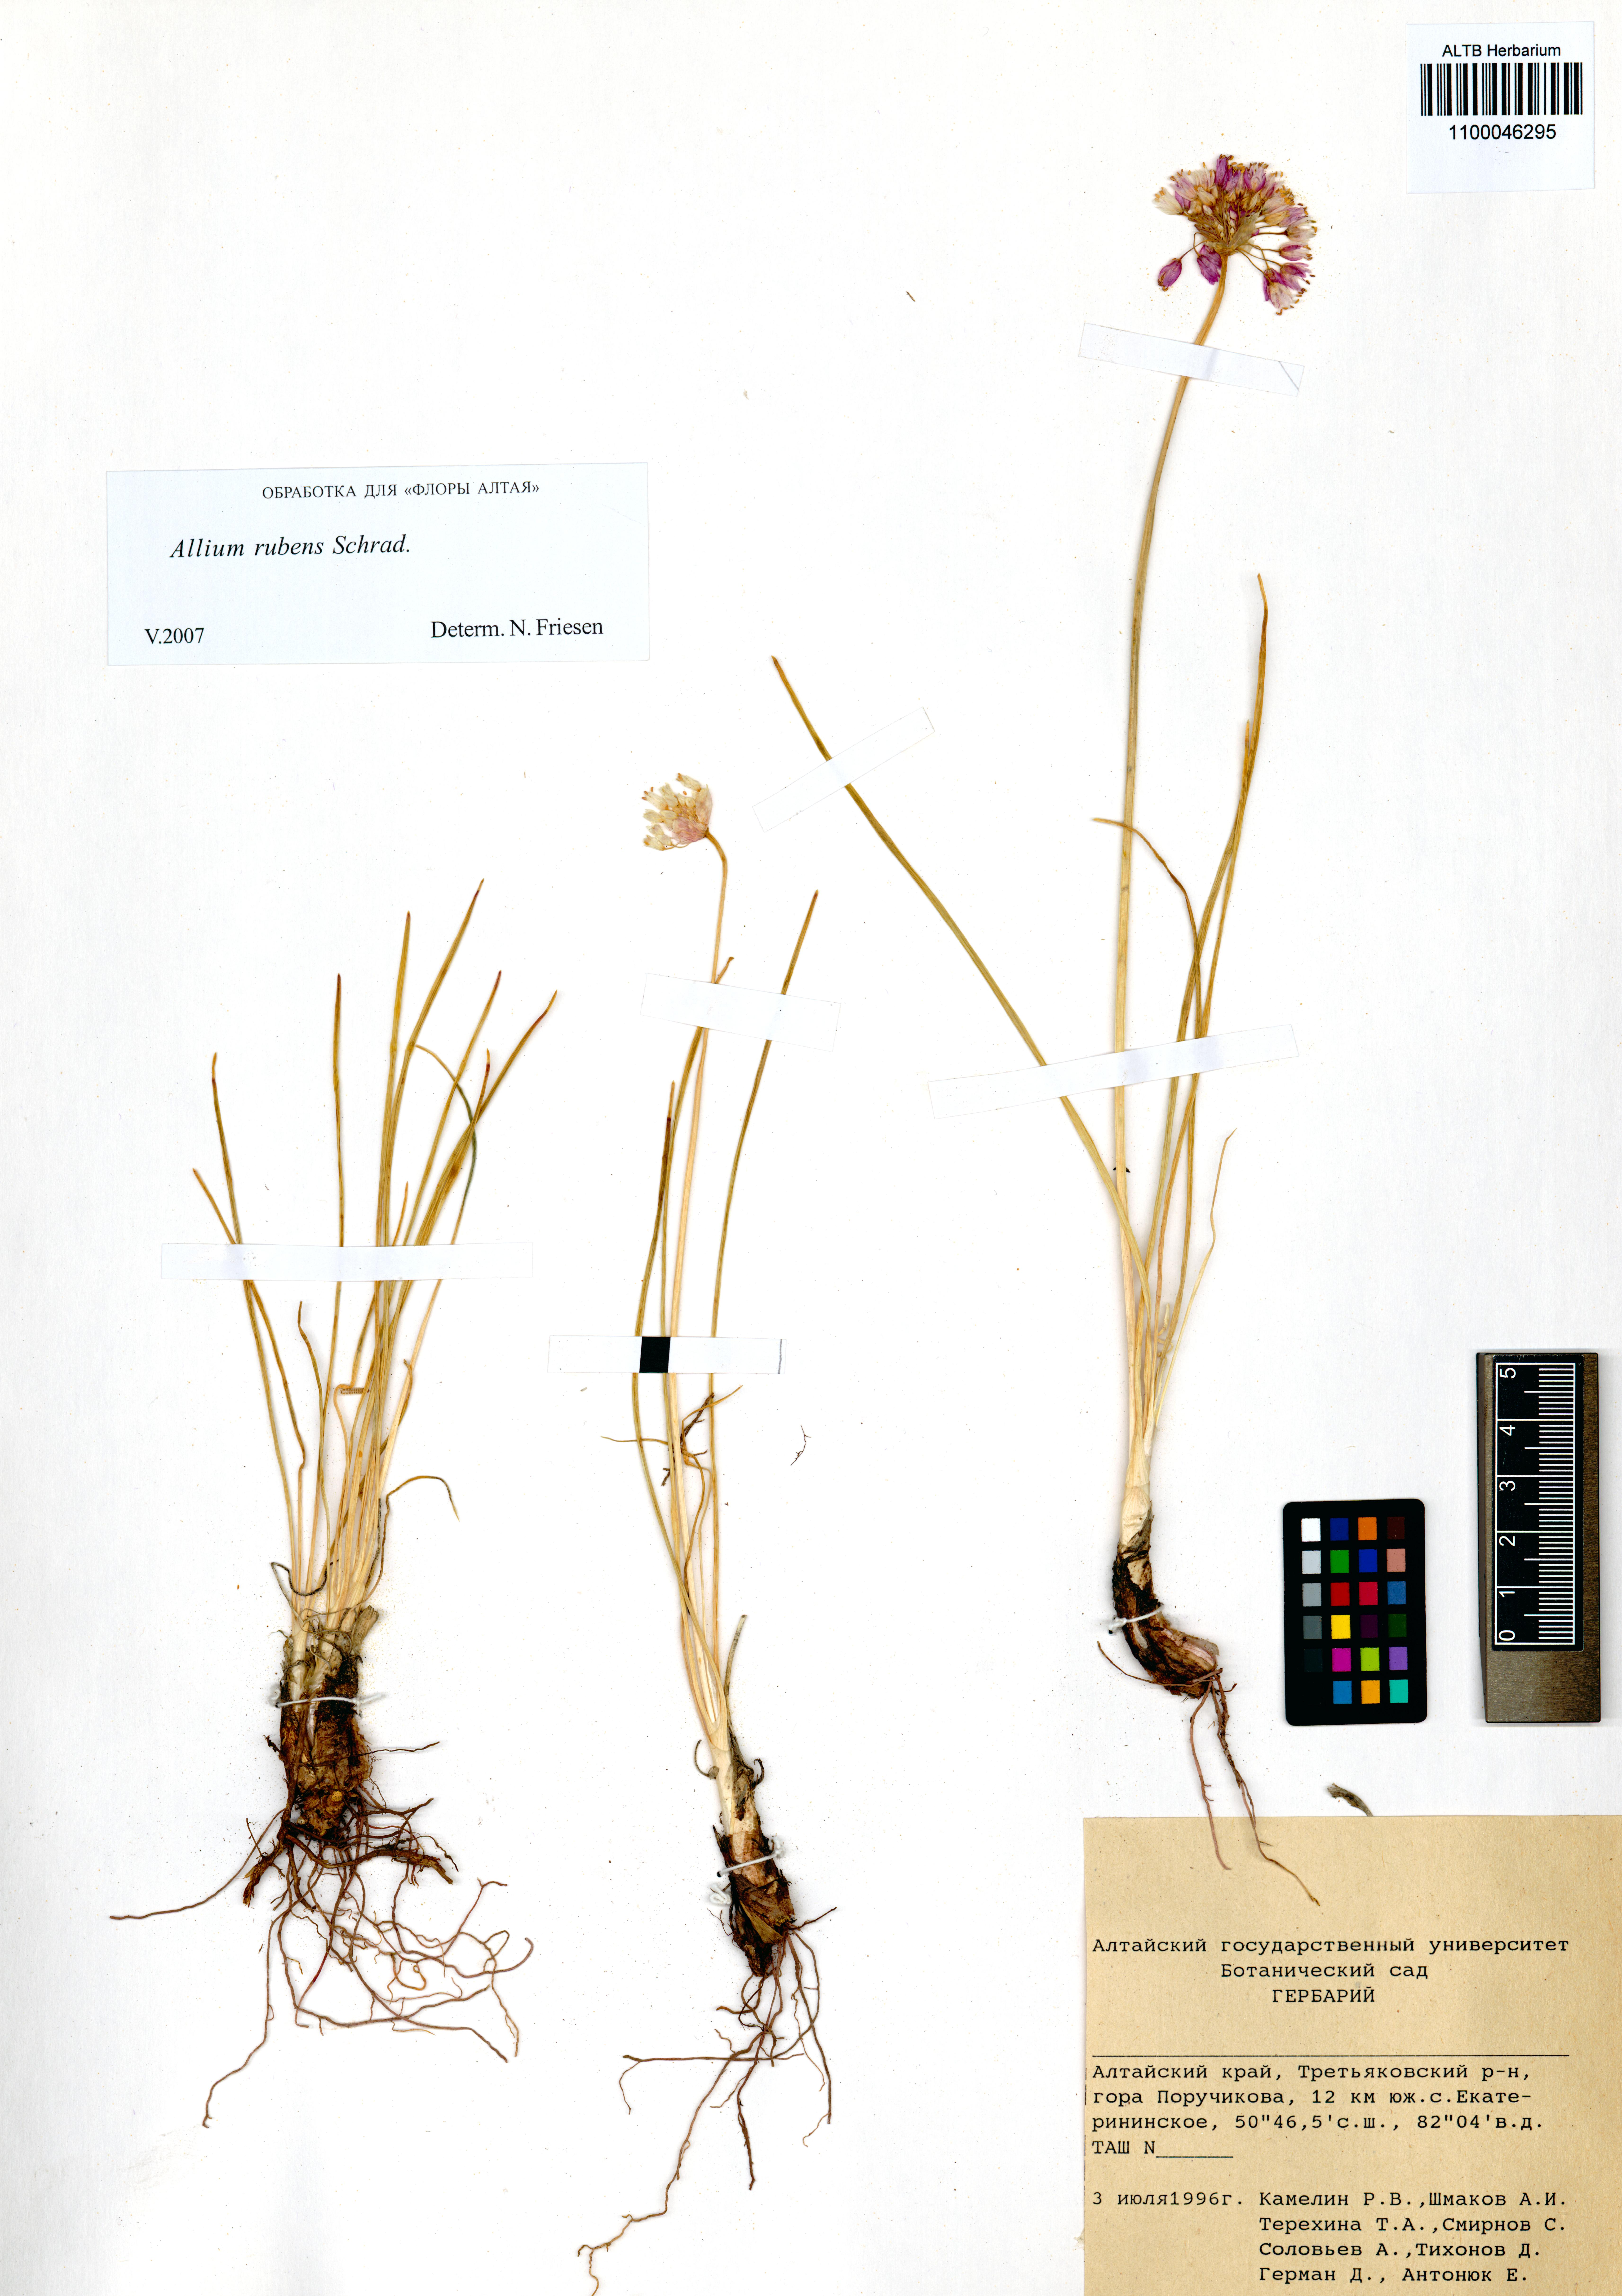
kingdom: Plantae
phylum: Tracheophyta
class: Liliopsida
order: Asparagales
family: Amaryllidaceae
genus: Allium
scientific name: Allium rubens
